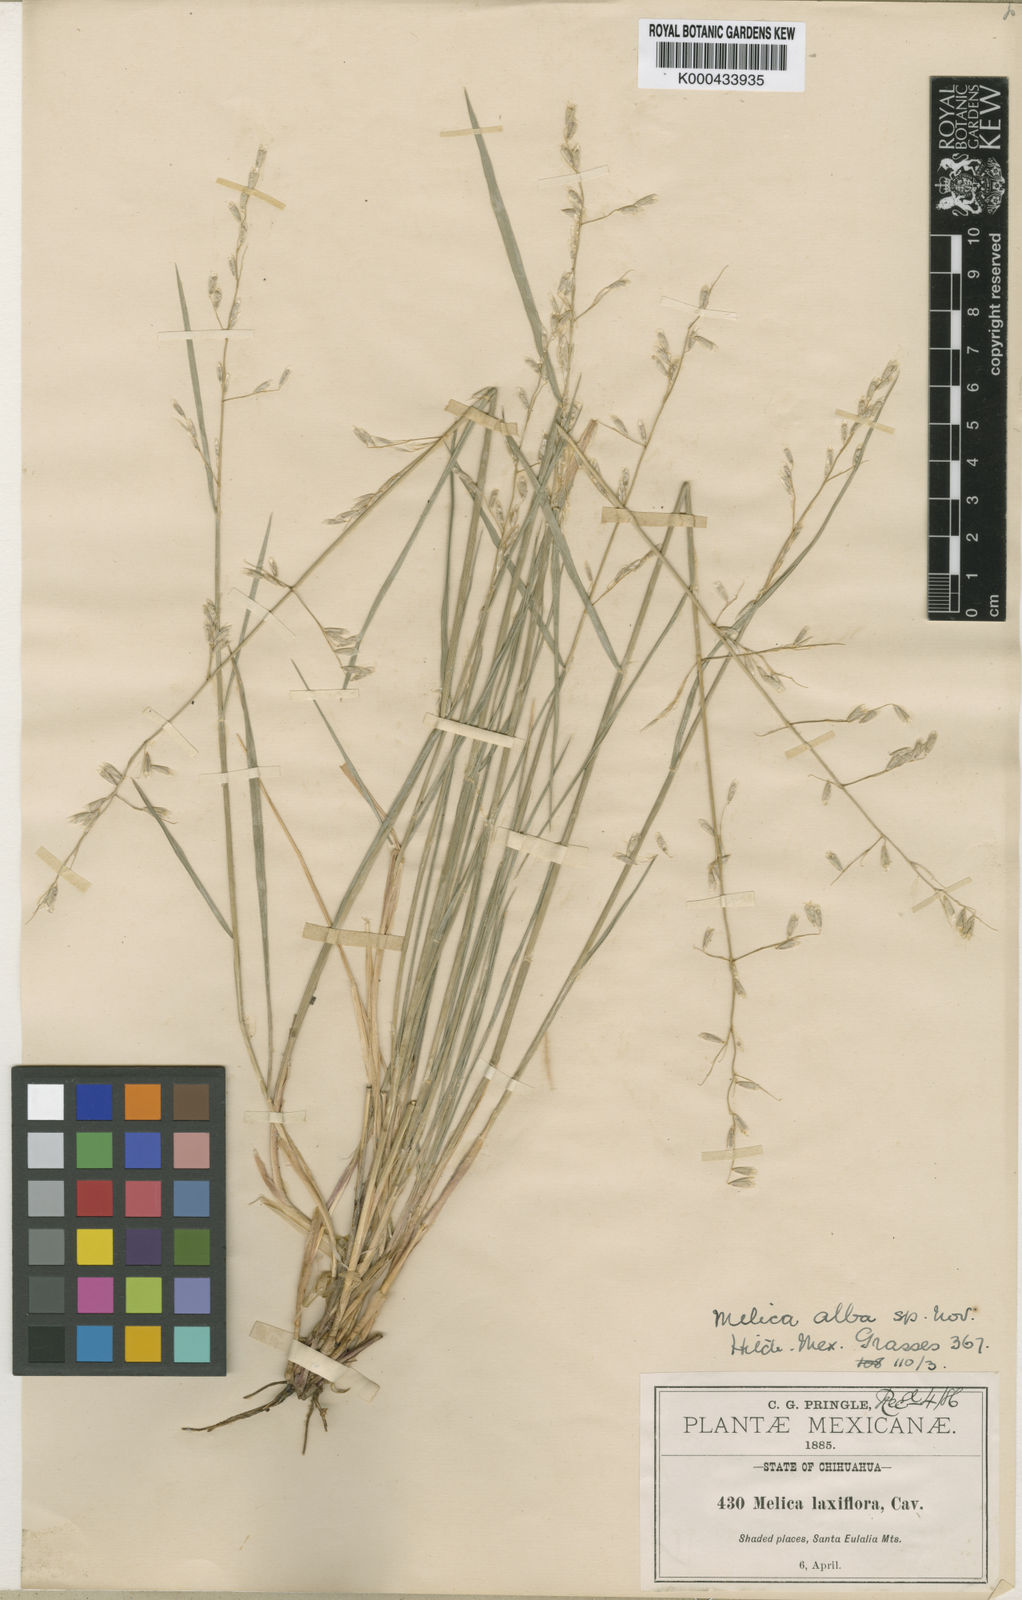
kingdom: Plantae
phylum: Tracheophyta
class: Liliopsida
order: Poales
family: Poaceae
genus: Melica
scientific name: Melica montezumae
